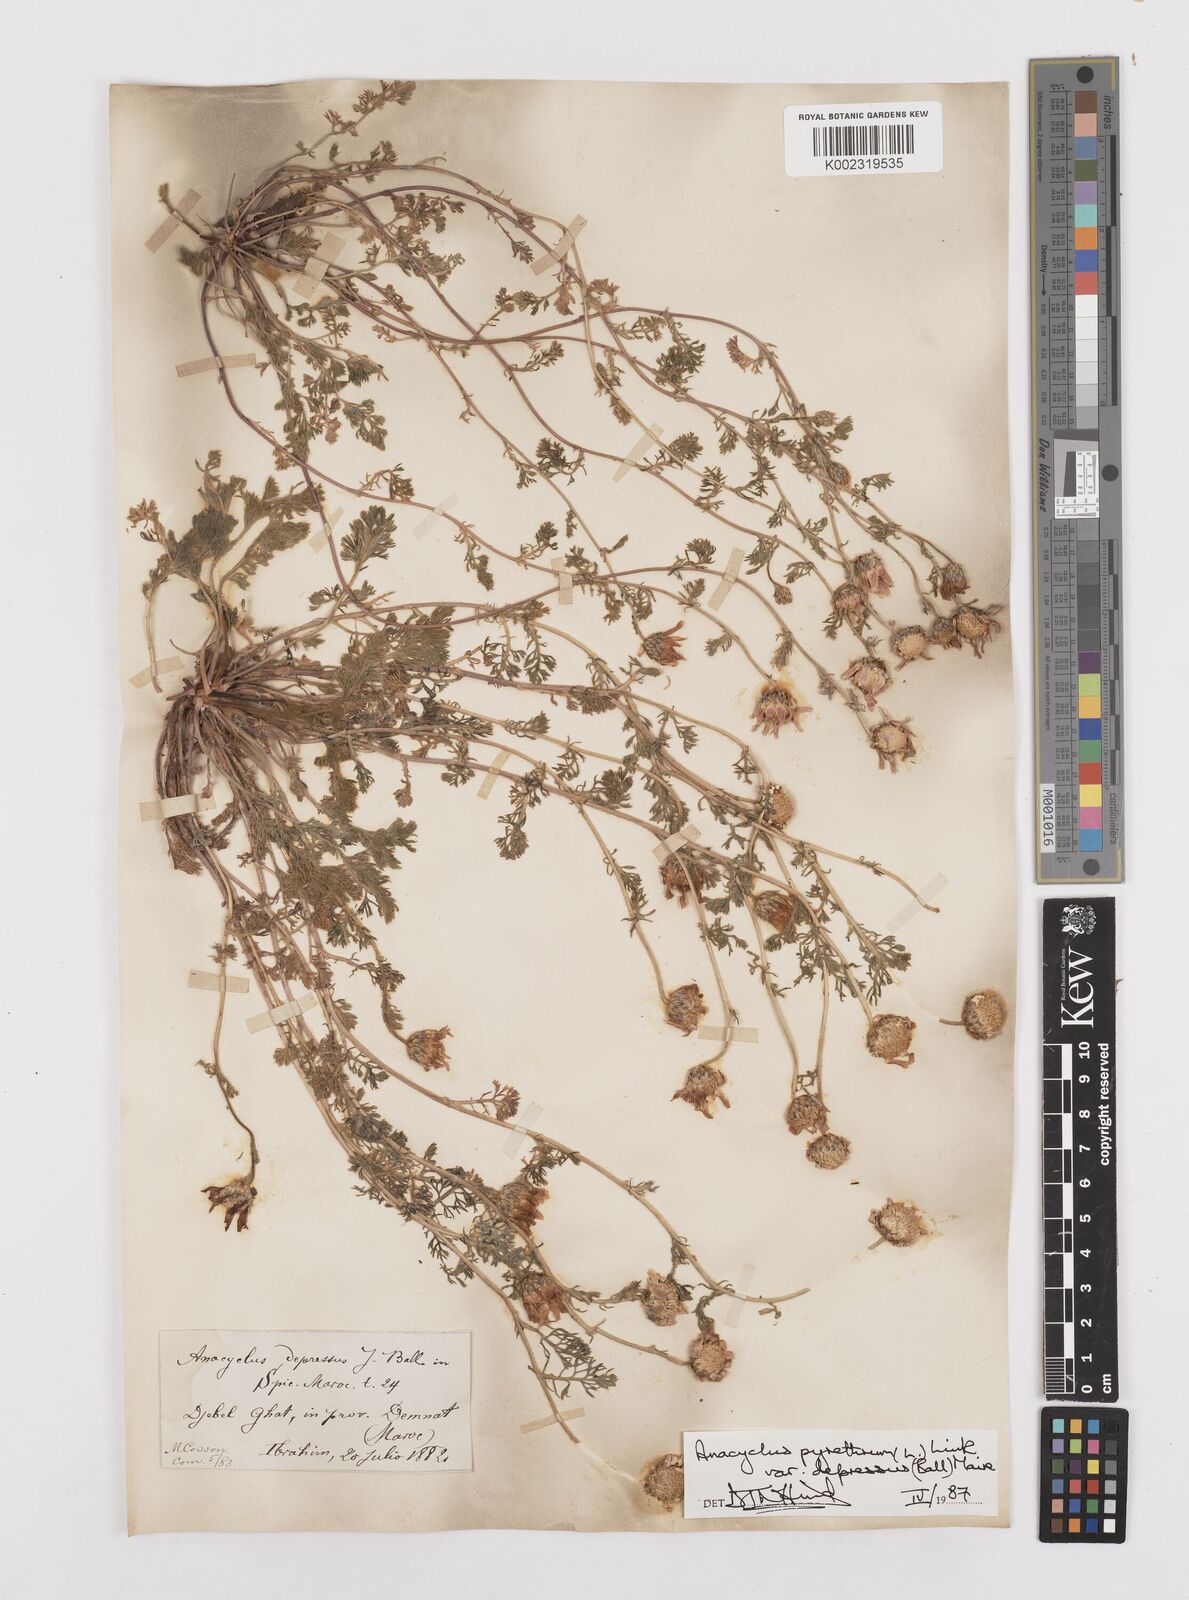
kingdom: Plantae
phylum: Tracheophyta
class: Magnoliopsida
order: Asterales
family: Asteraceae
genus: Anacyclus
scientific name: Anacyclus pyrethrum
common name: Mt. atlas daisy
